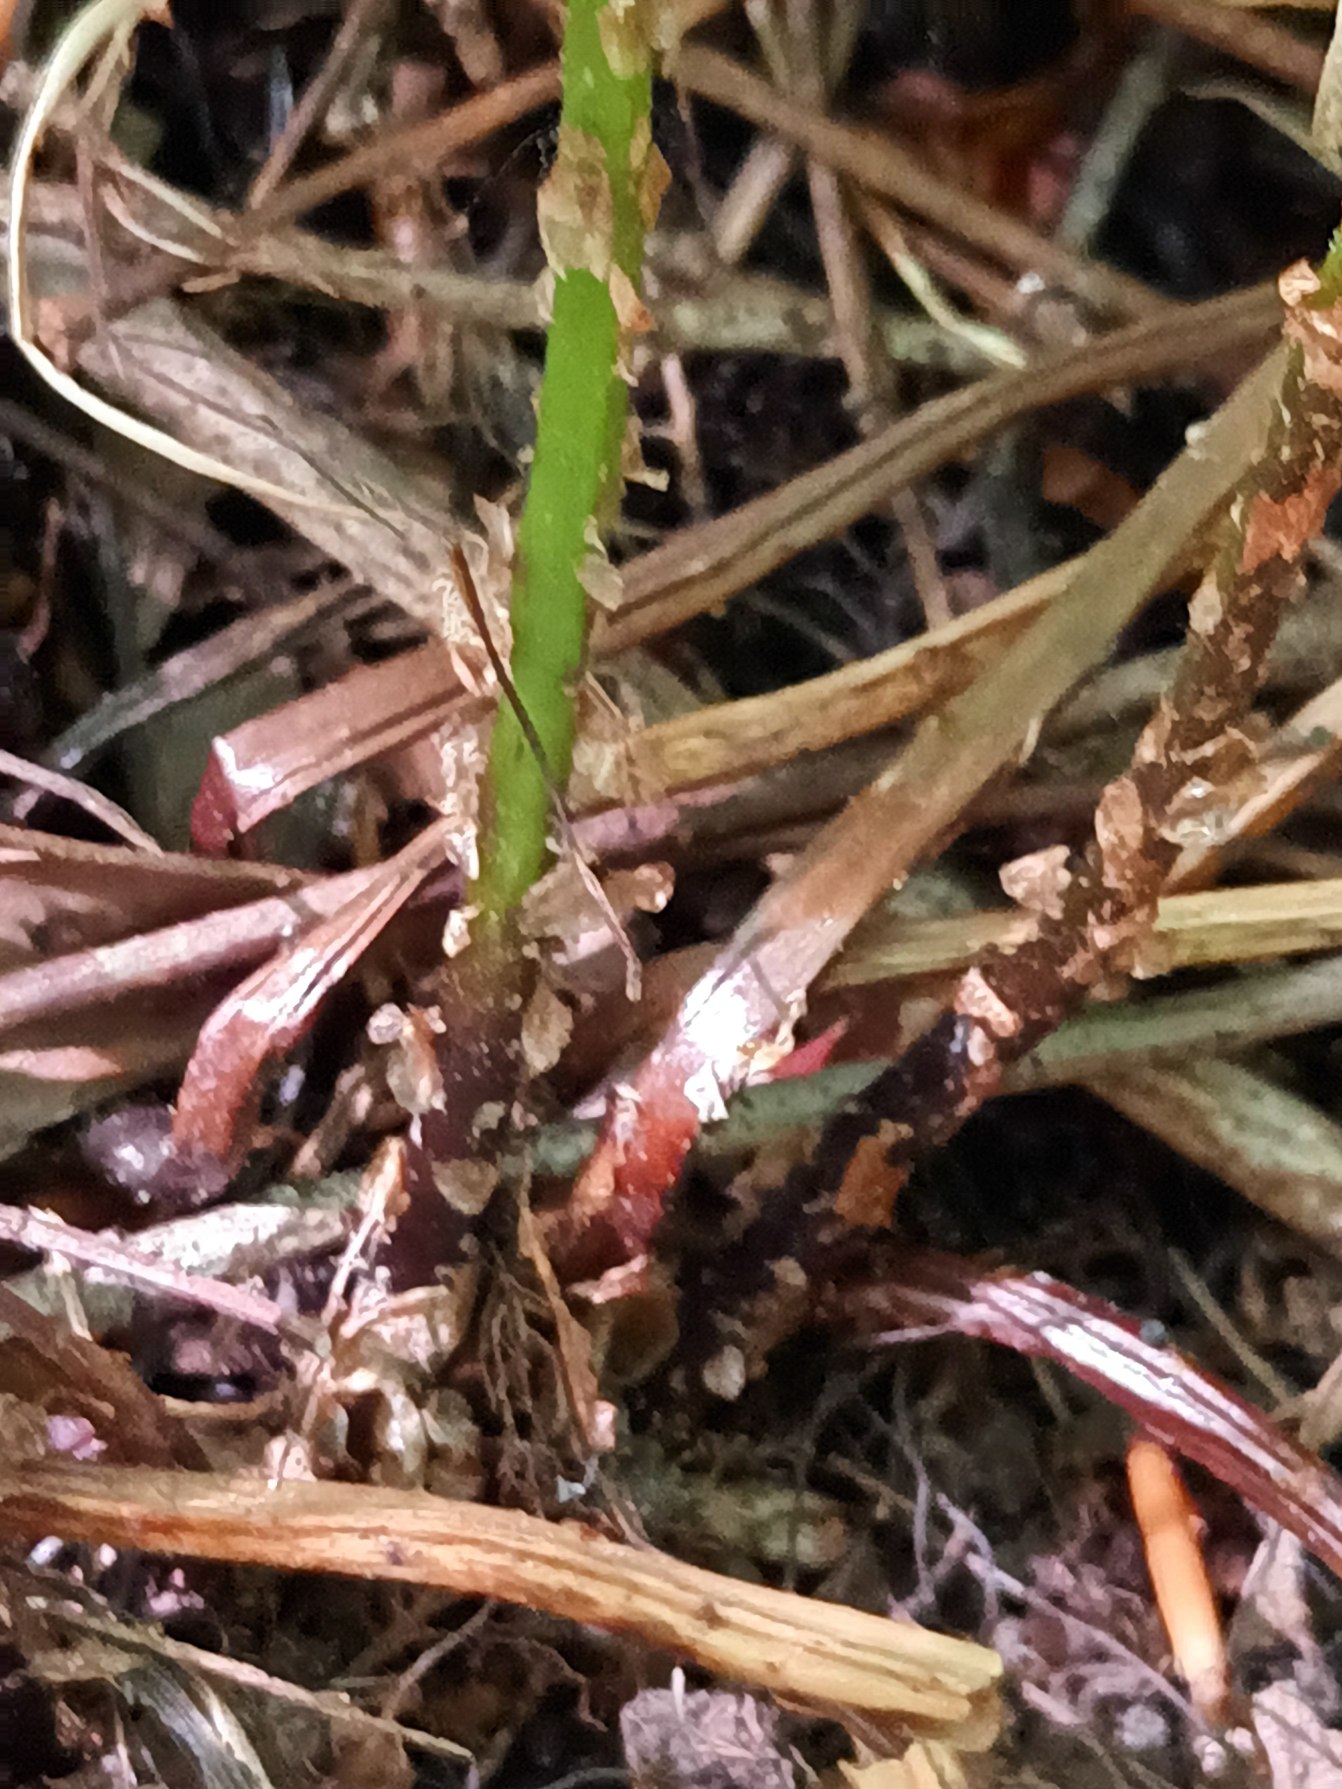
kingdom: Plantae
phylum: Tracheophyta
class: Polypodiopsida
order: Polypodiales
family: Dryopteridaceae
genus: Dryopteris
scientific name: Dryopteris carthusiana
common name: Smalbladet mangeløv
